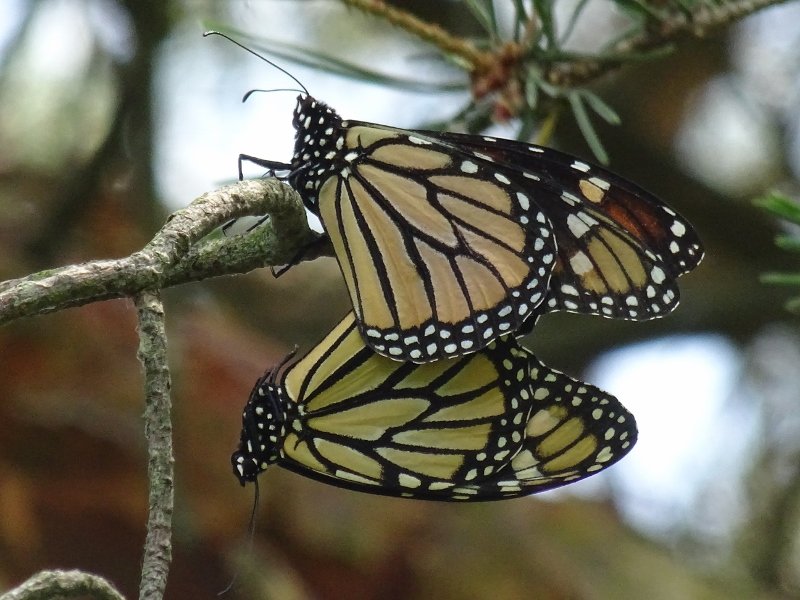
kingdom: Animalia
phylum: Arthropoda
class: Insecta
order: Lepidoptera
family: Nymphalidae
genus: Danaus
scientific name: Danaus plexippus
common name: Monarch
